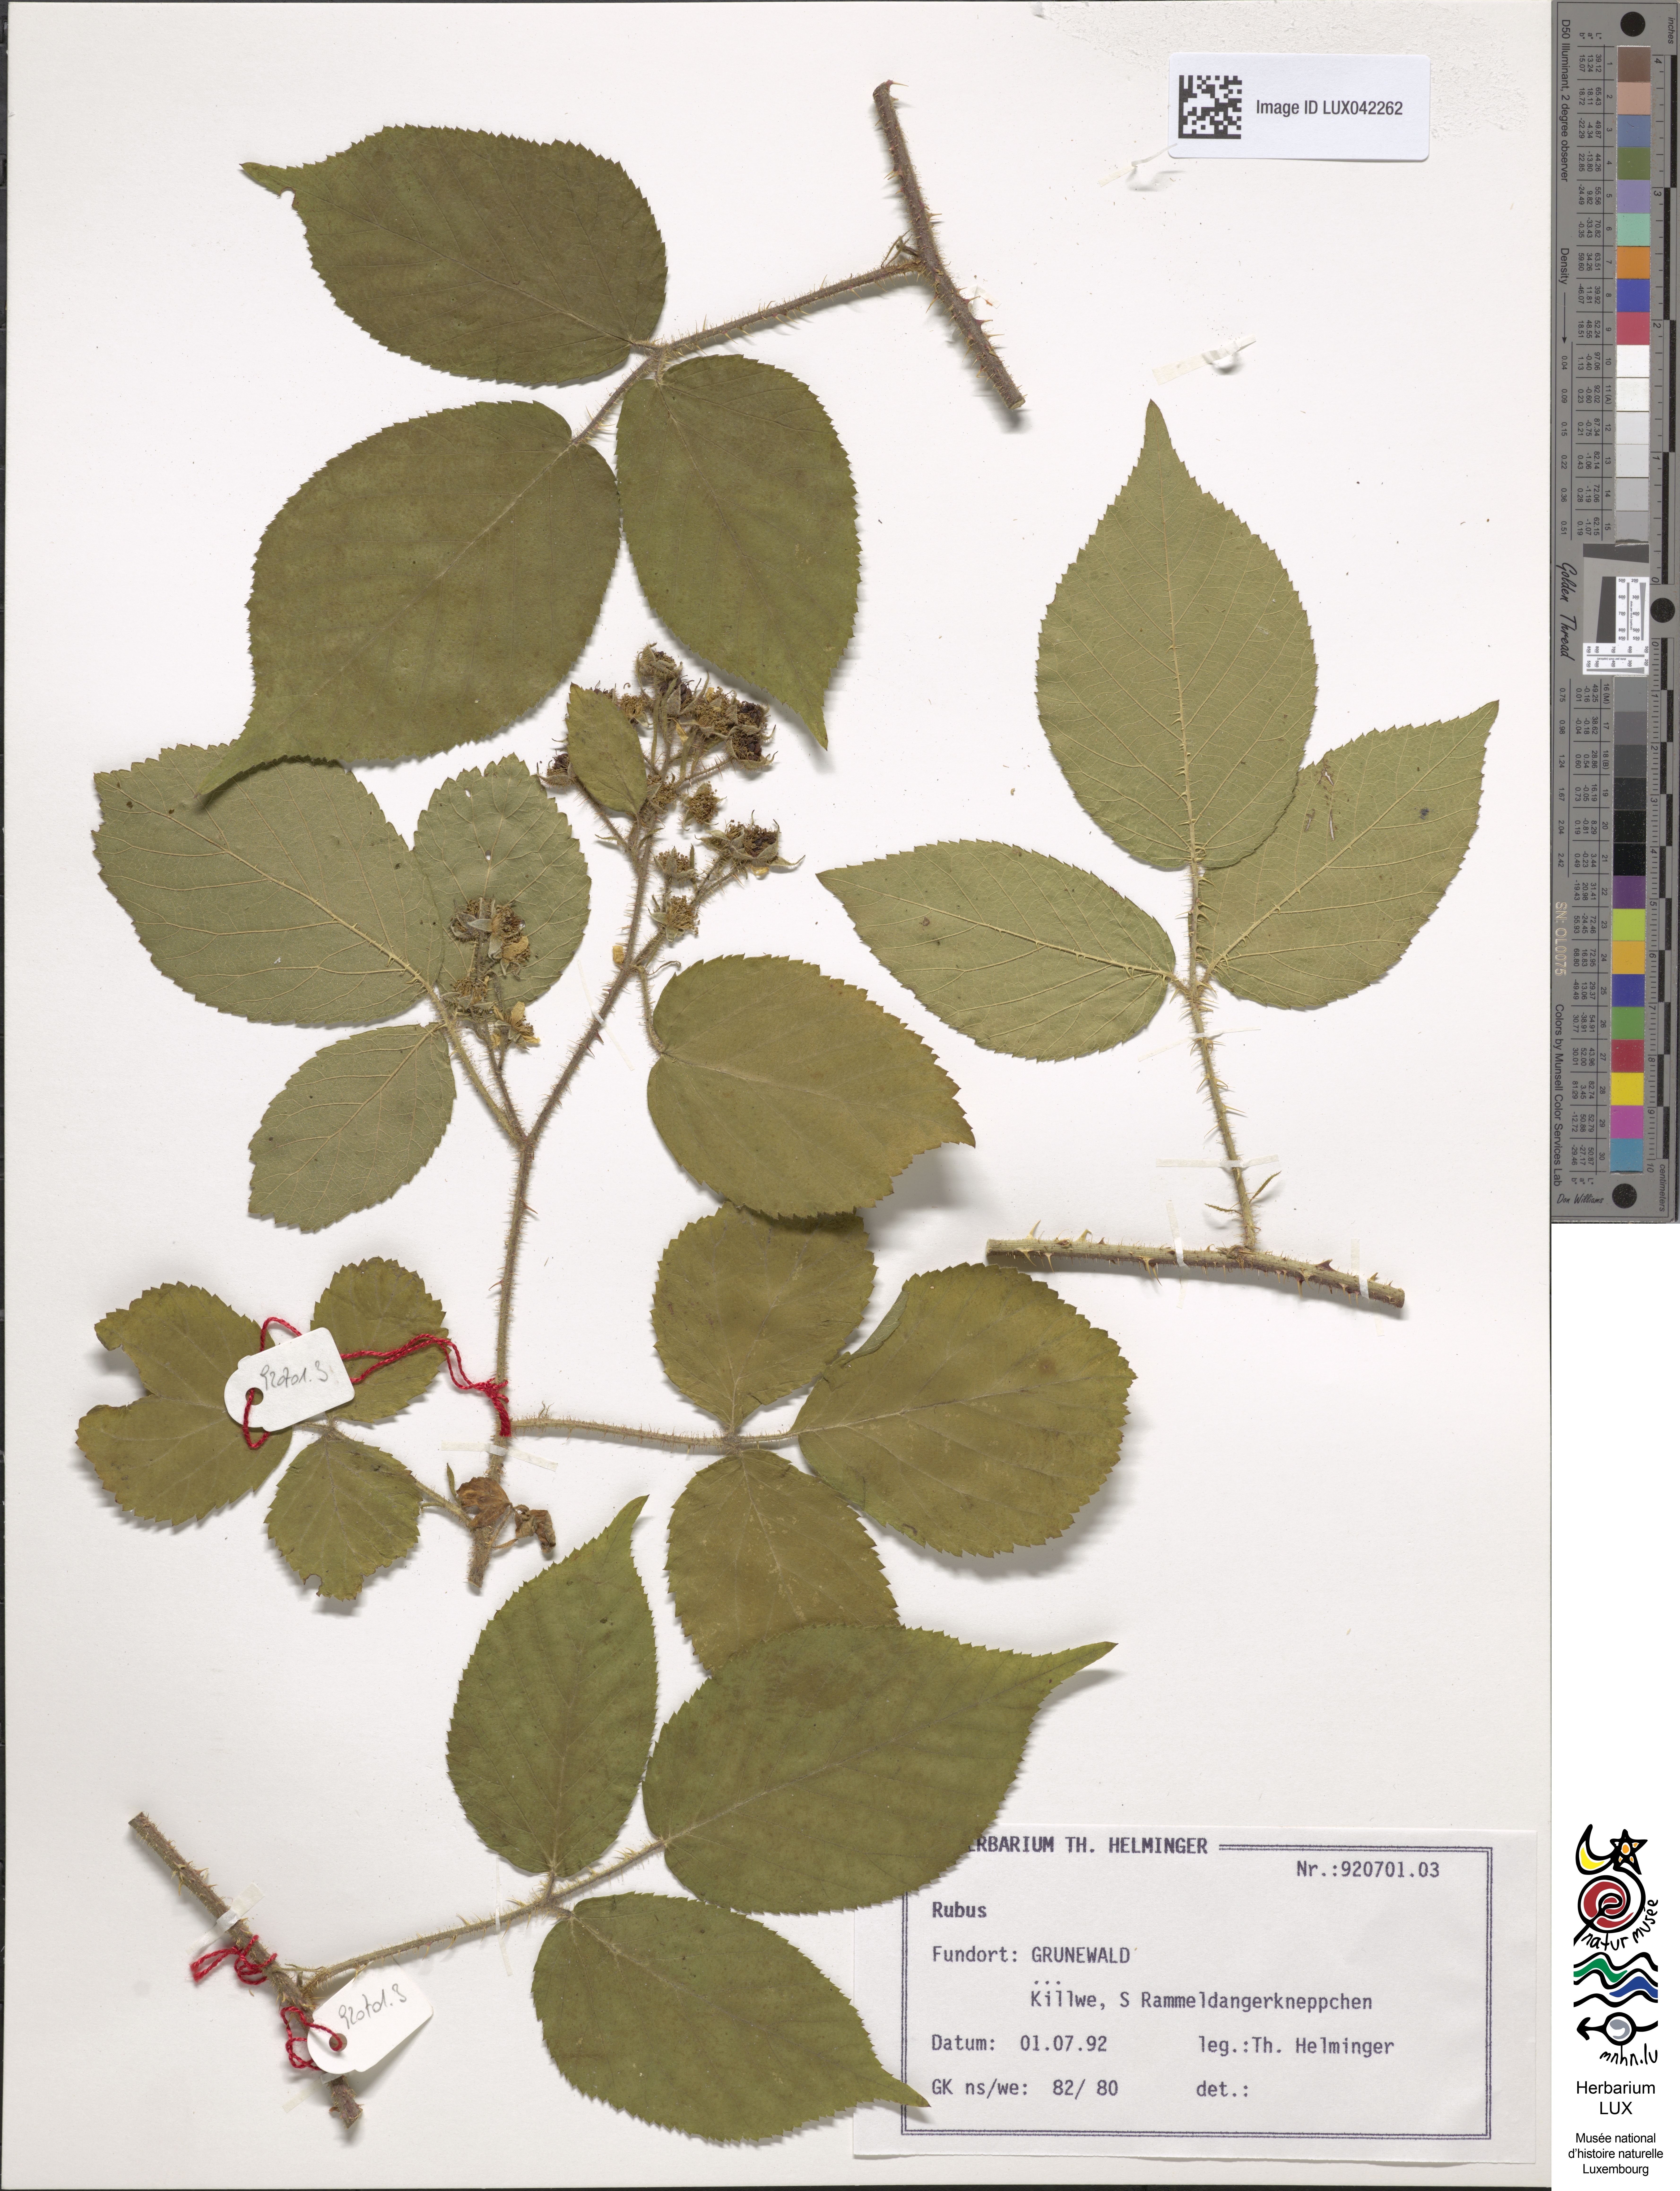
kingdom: Plantae
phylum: Tracheophyta
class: Magnoliopsida
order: Rosales
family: Rosaceae
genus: Rubus
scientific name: Rubus
